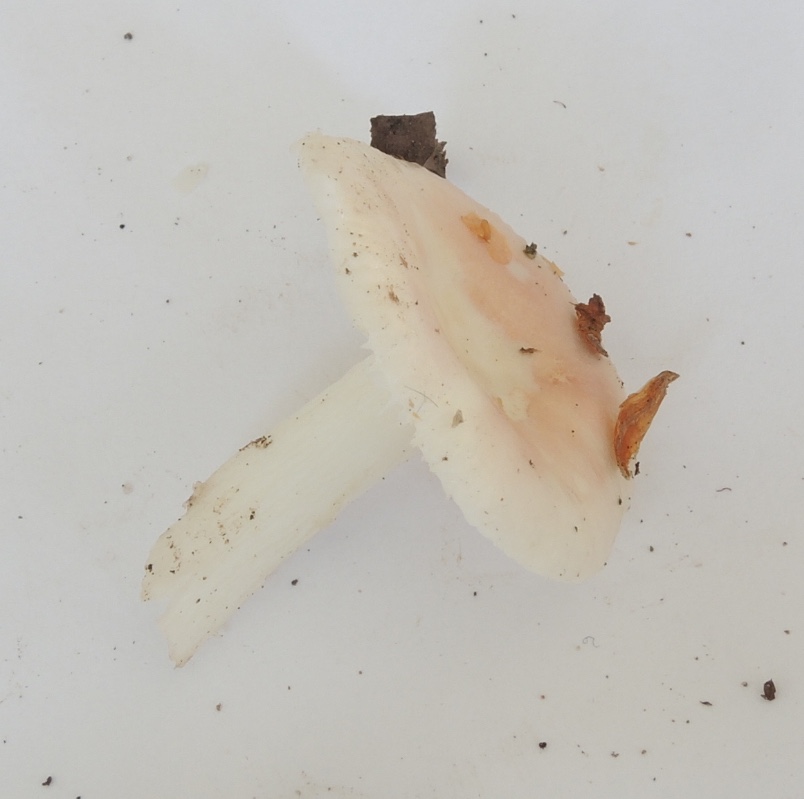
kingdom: Fungi
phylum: Basidiomycota
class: Agaricomycetes
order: Russulales
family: Russulaceae
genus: Russula
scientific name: Russula betularum
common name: bleg gift-skørhat
